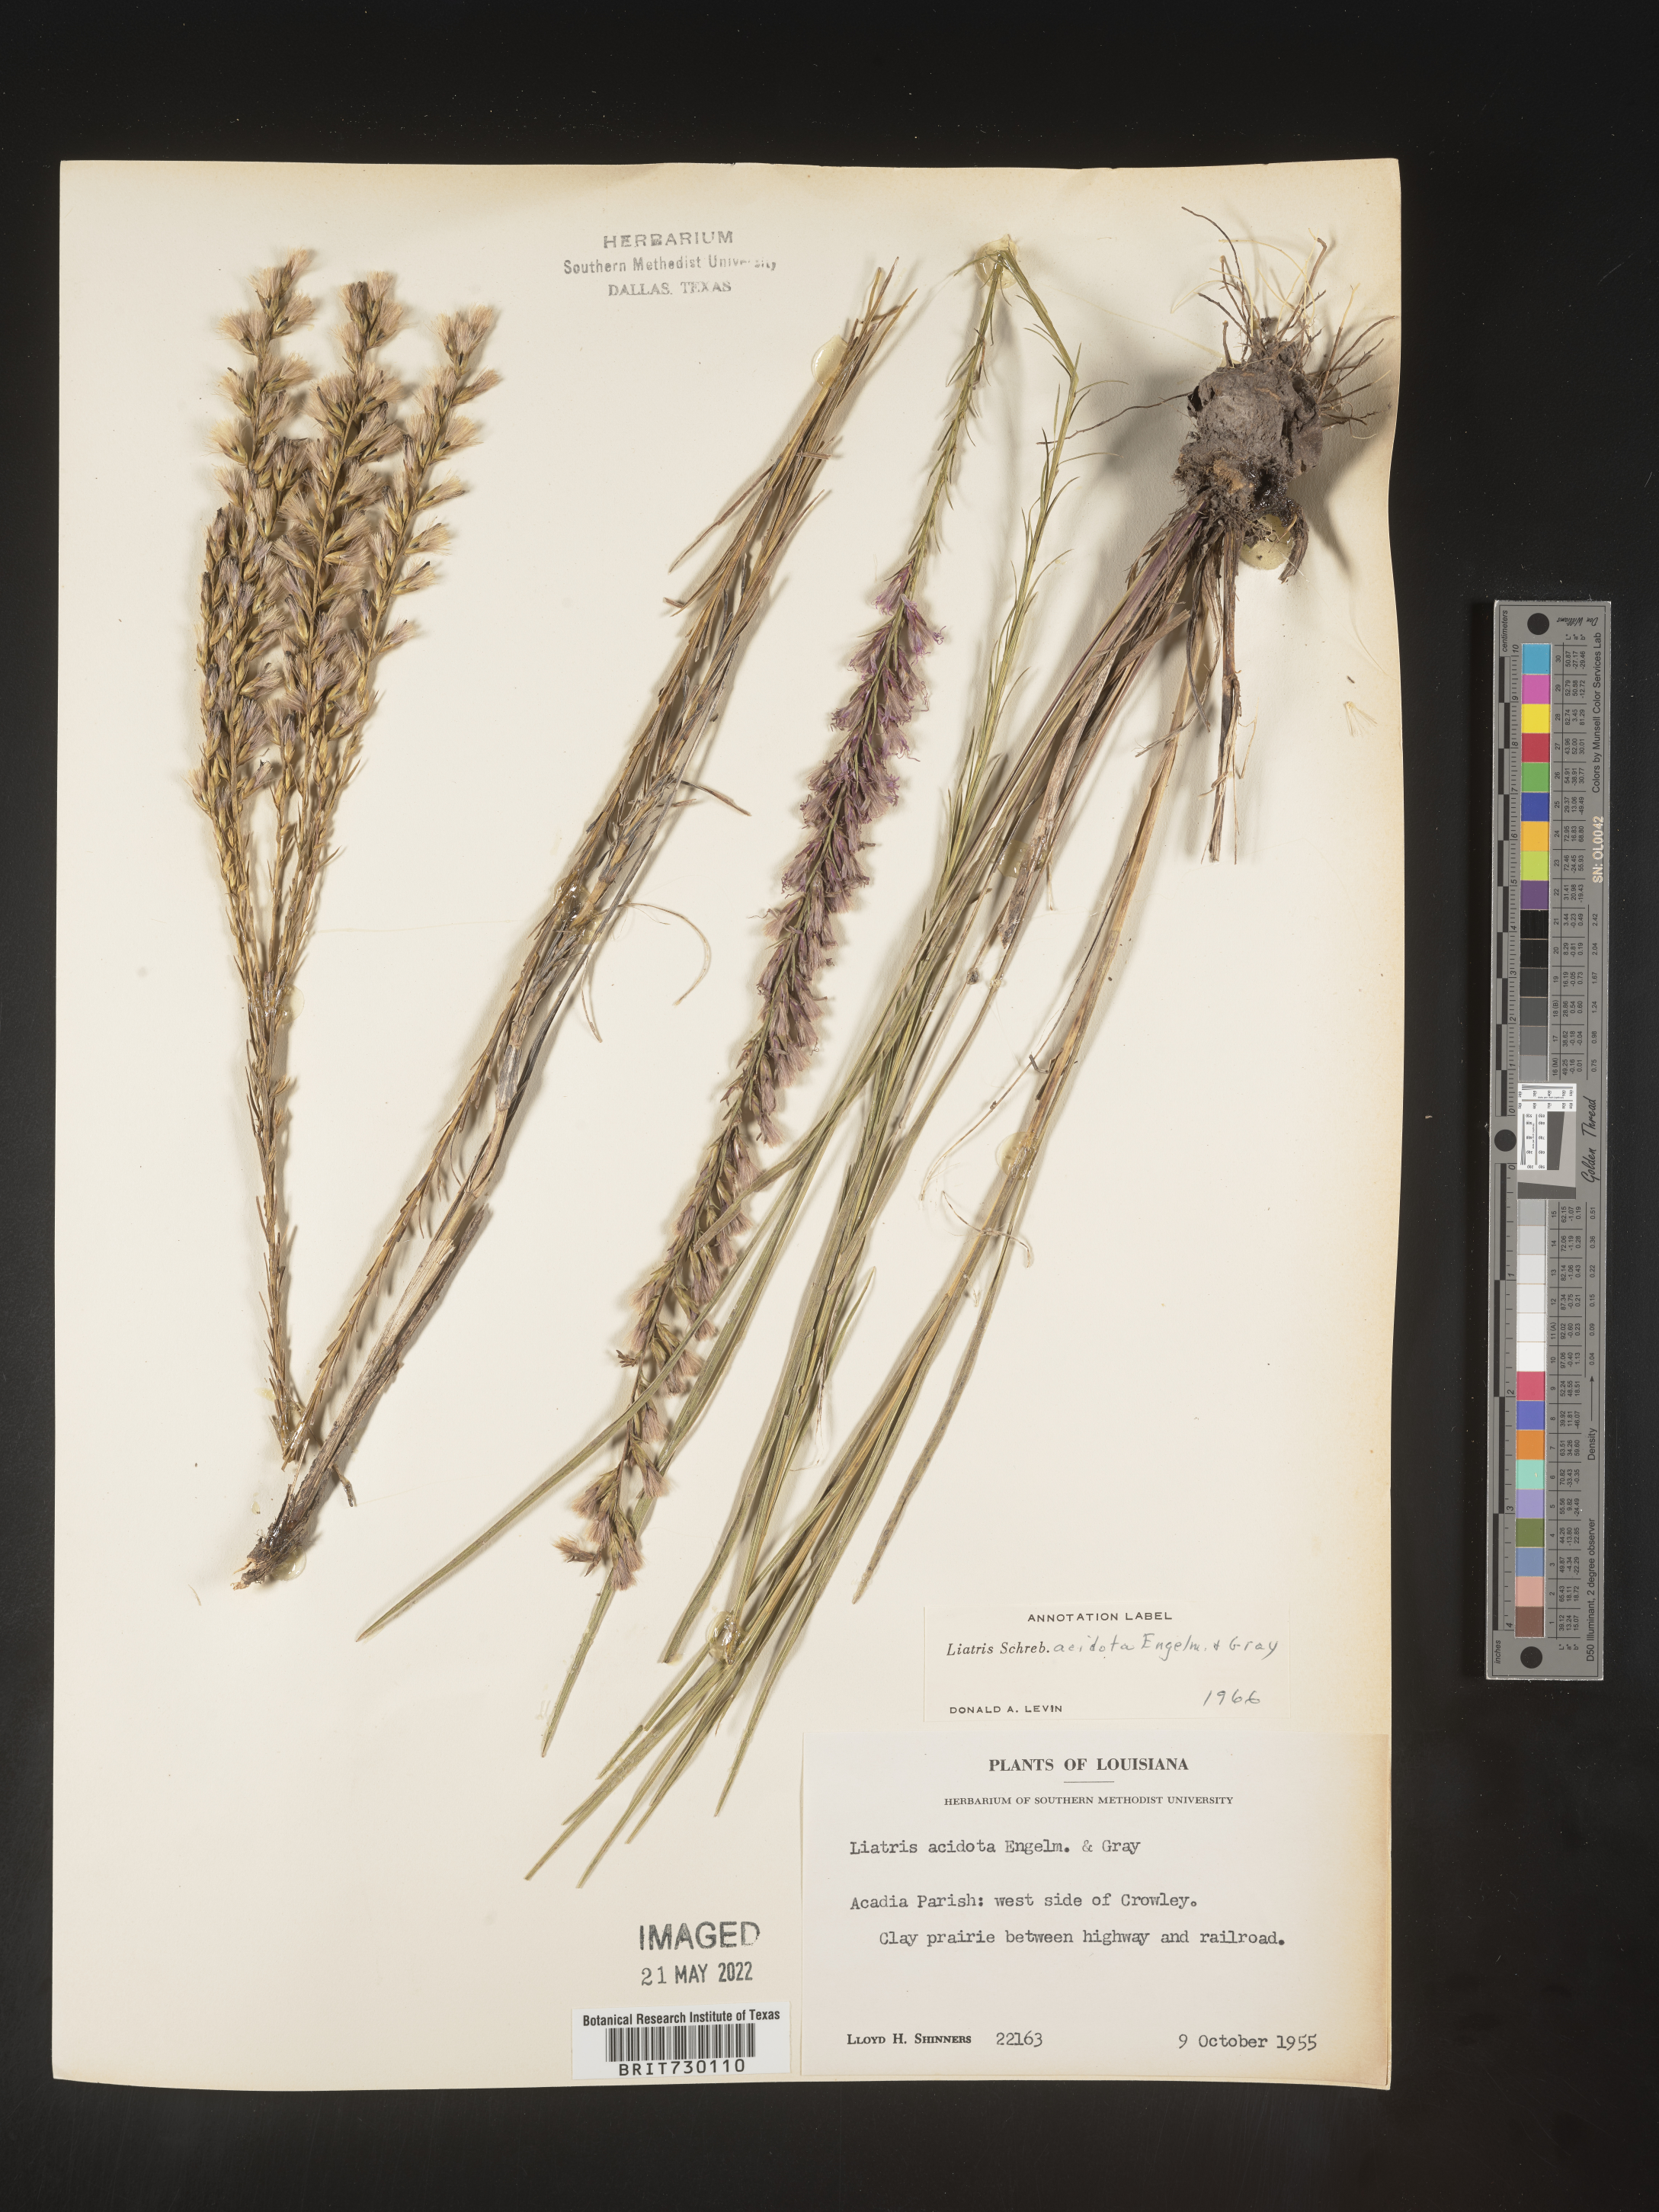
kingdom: Plantae
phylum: Tracheophyta
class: Magnoliopsida
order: Asterales
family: Asteraceae
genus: Liatris
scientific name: Liatris acidota
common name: Gulf coast gayfeather
